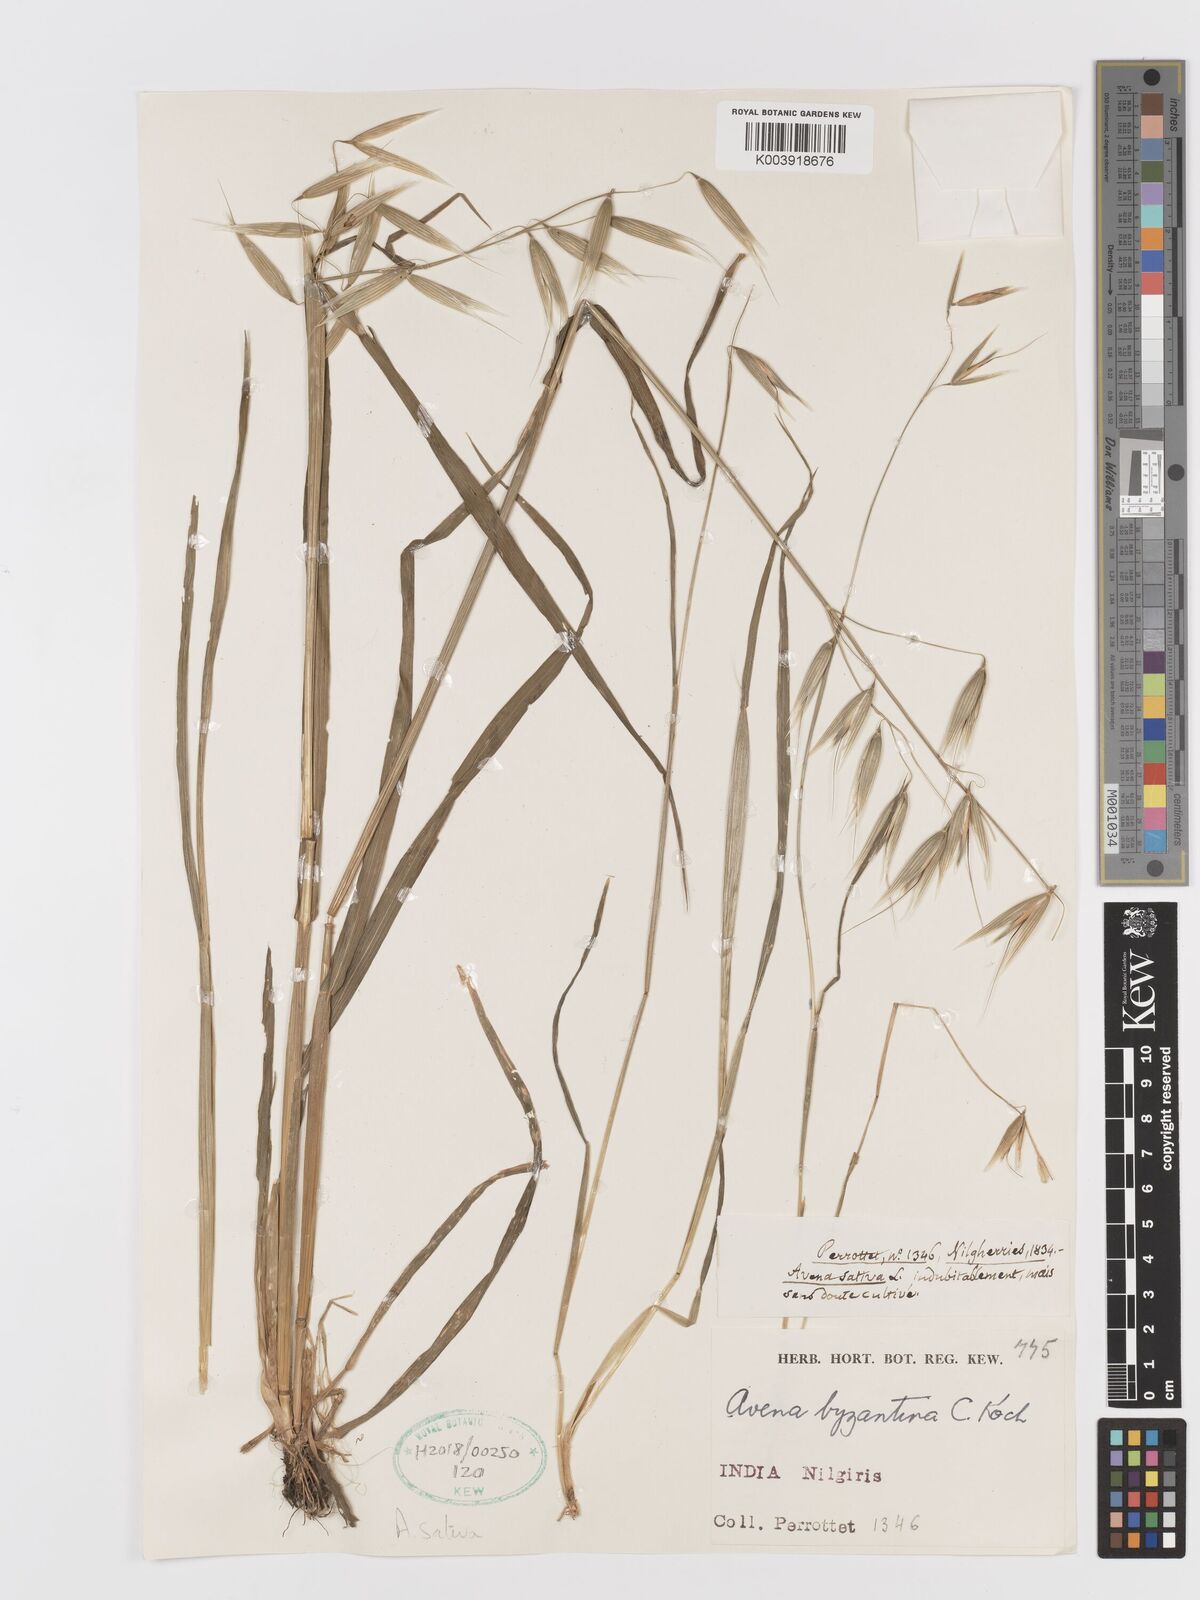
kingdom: Plantae
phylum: Tracheophyta
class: Liliopsida
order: Poales
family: Poaceae
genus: Avena
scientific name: Avena sativa
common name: Oat
